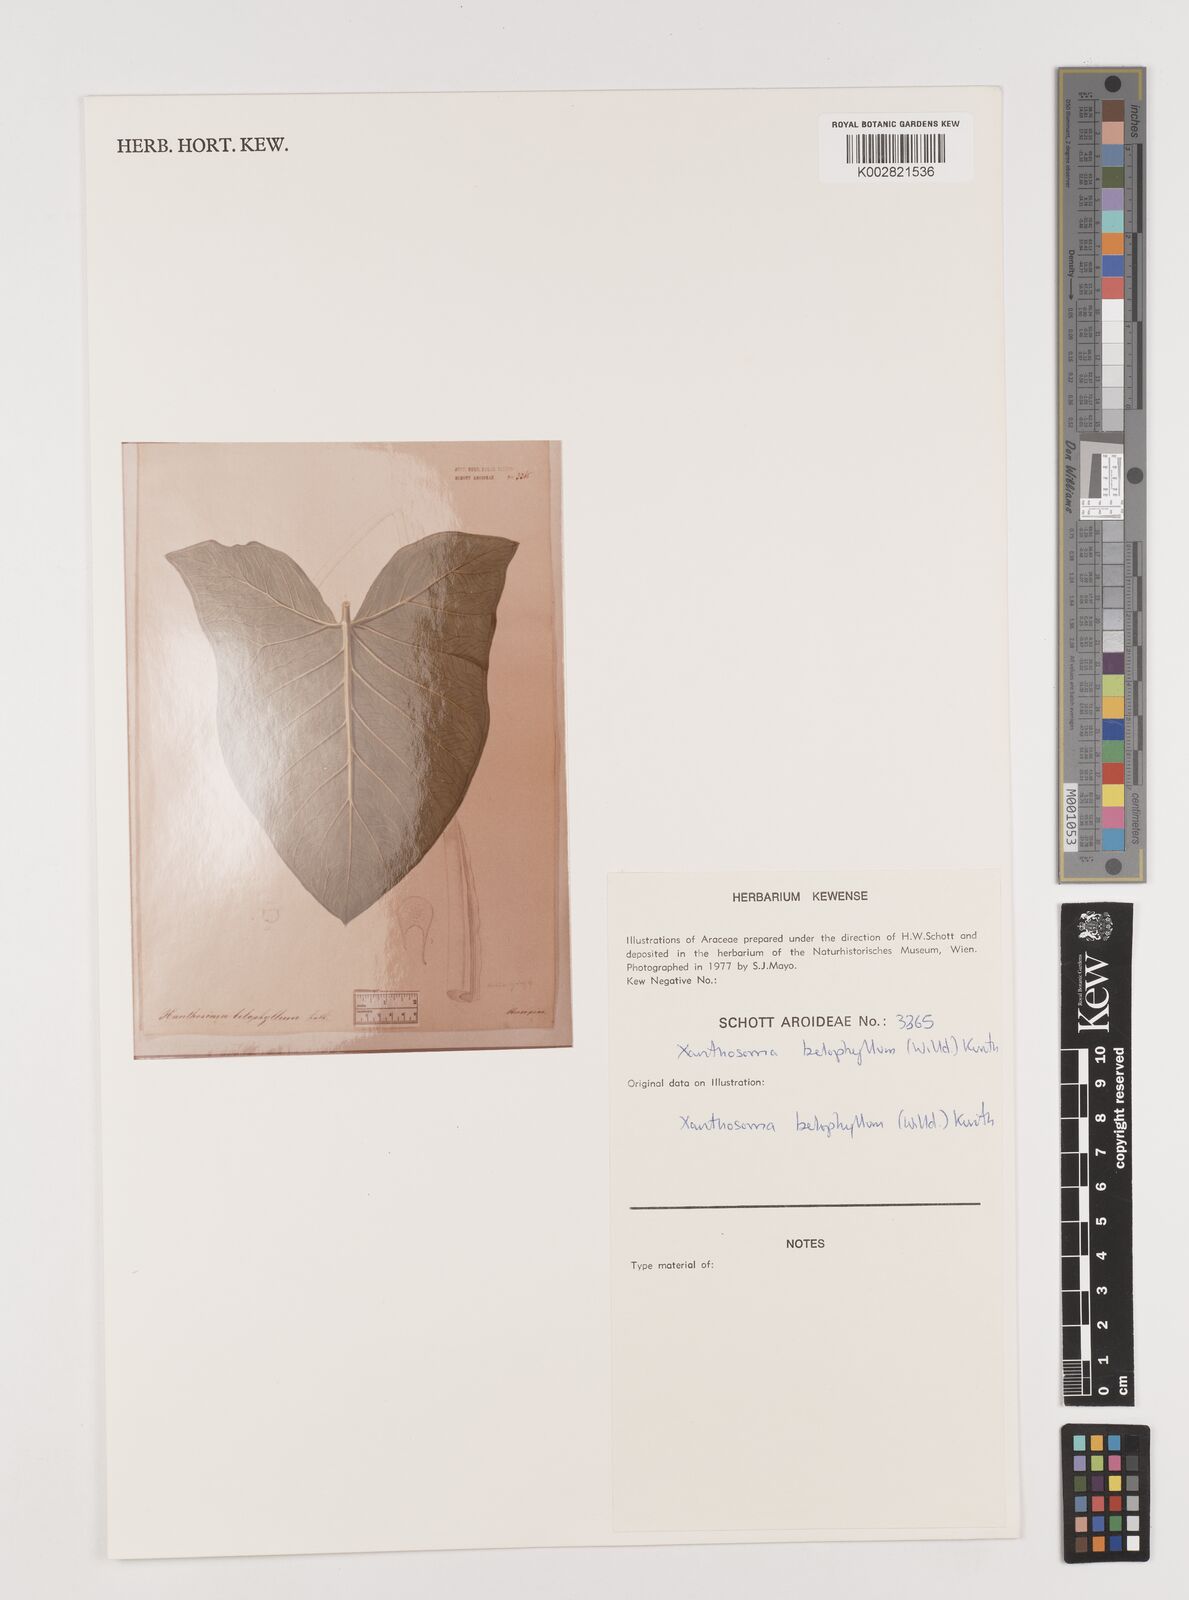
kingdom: Plantae
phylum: Tracheophyta
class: Liliopsida
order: Alismatales
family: Araceae
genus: Xanthosoma
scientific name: Xanthosoma belophyllum
